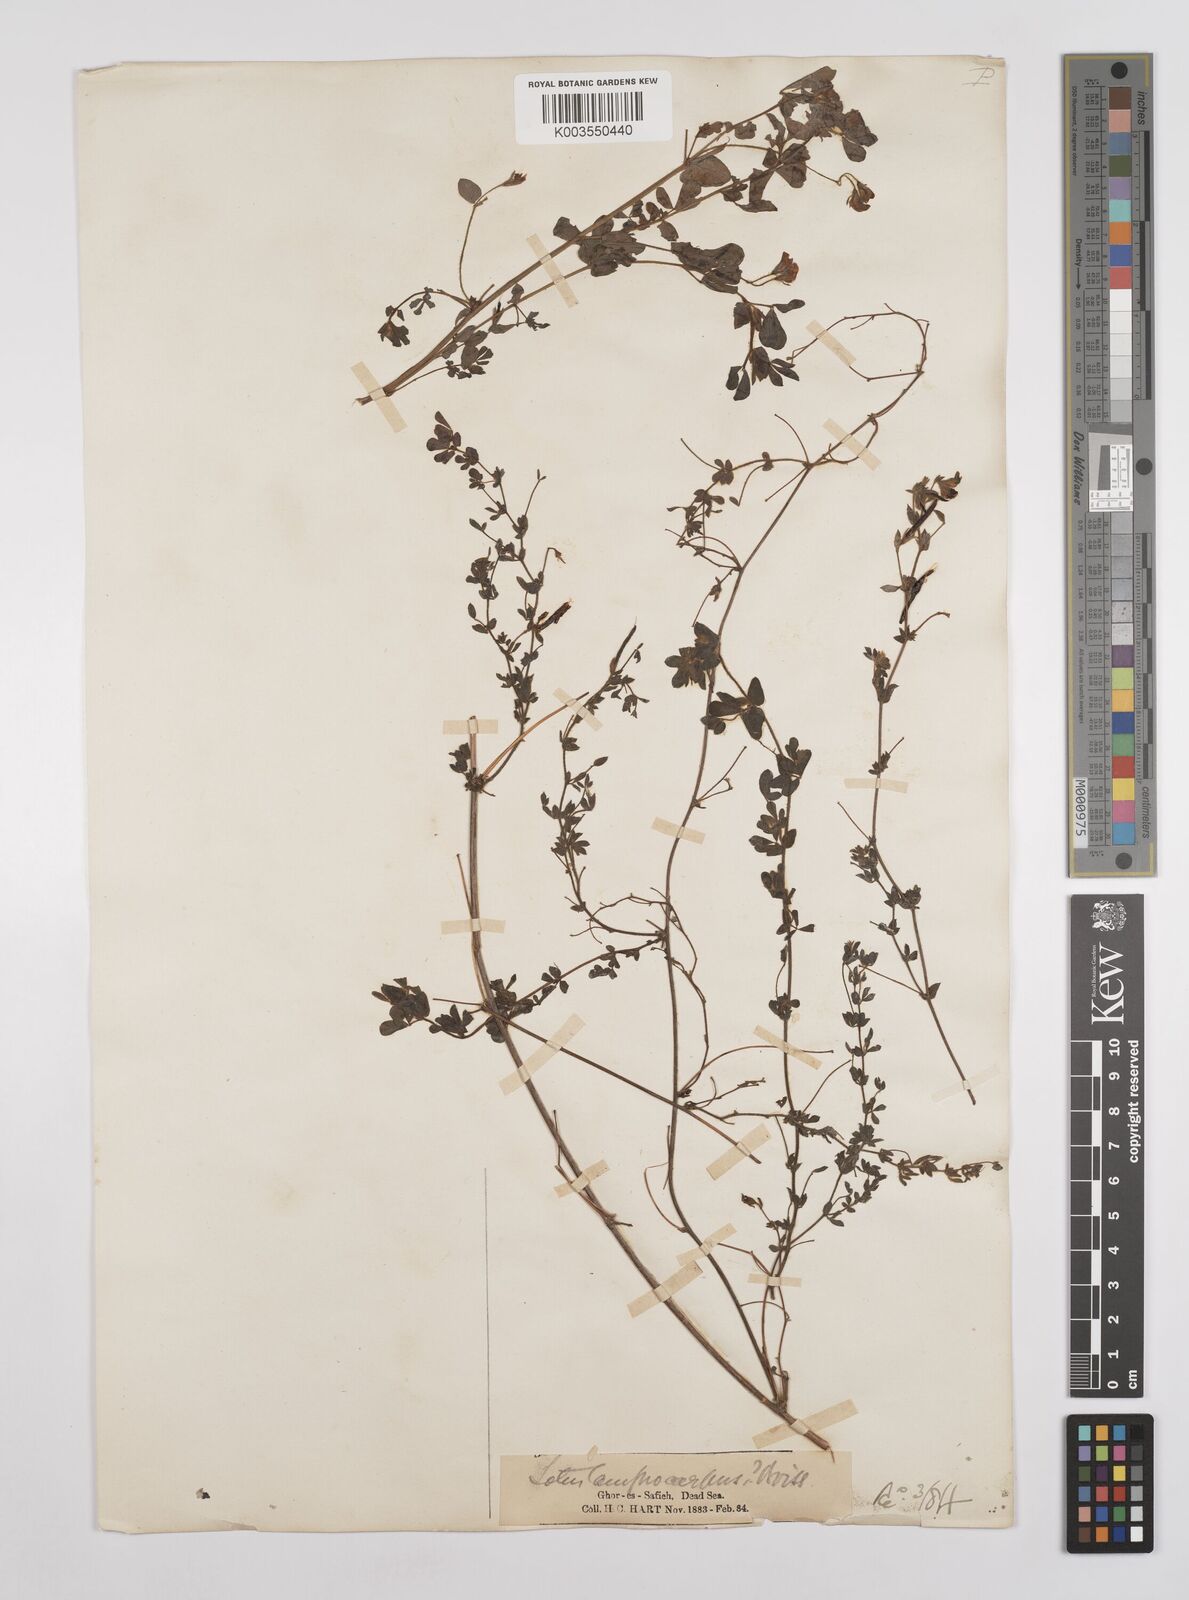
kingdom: Plantae
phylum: Tracheophyta
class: Magnoliopsida
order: Fabales
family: Fabaceae
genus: Lotus
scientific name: Lotus palustris
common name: Large birds-foot trefoil
